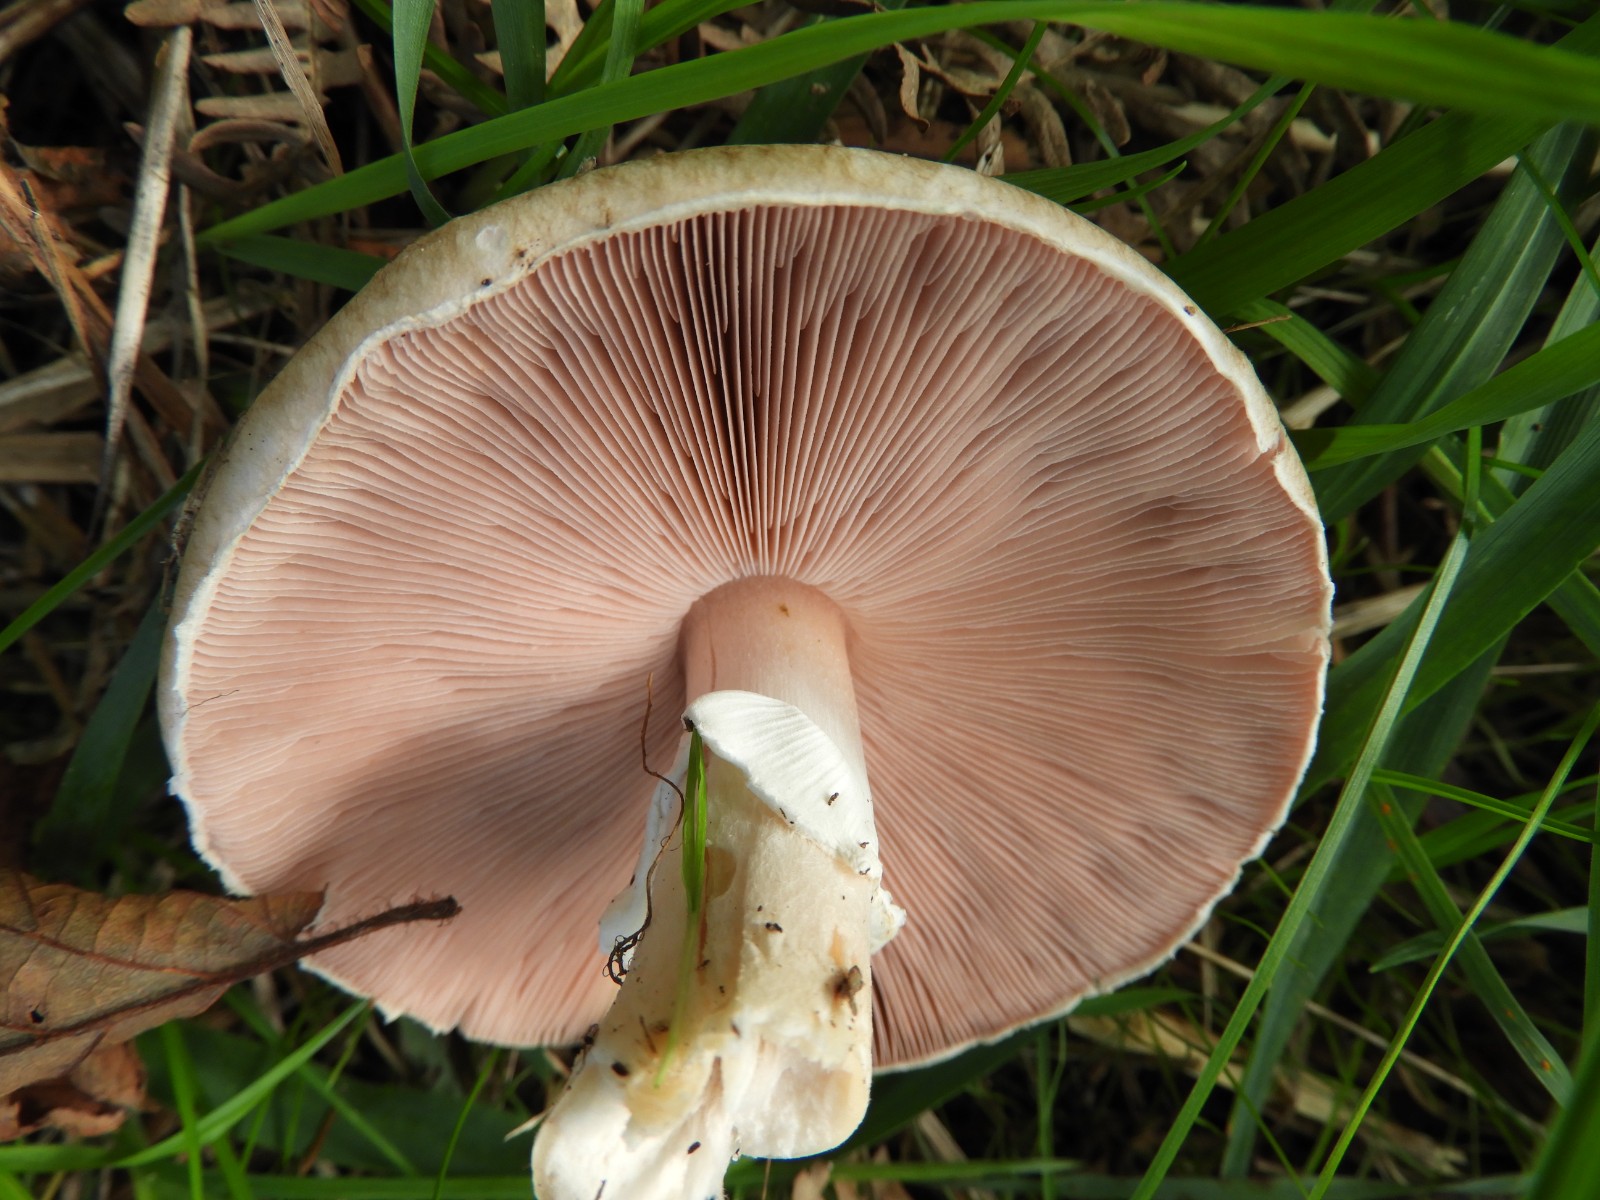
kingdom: Fungi
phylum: Basidiomycota
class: Agaricomycetes
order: Agaricales
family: Agaricaceae
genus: Agaricus
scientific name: Agaricus impudicus
